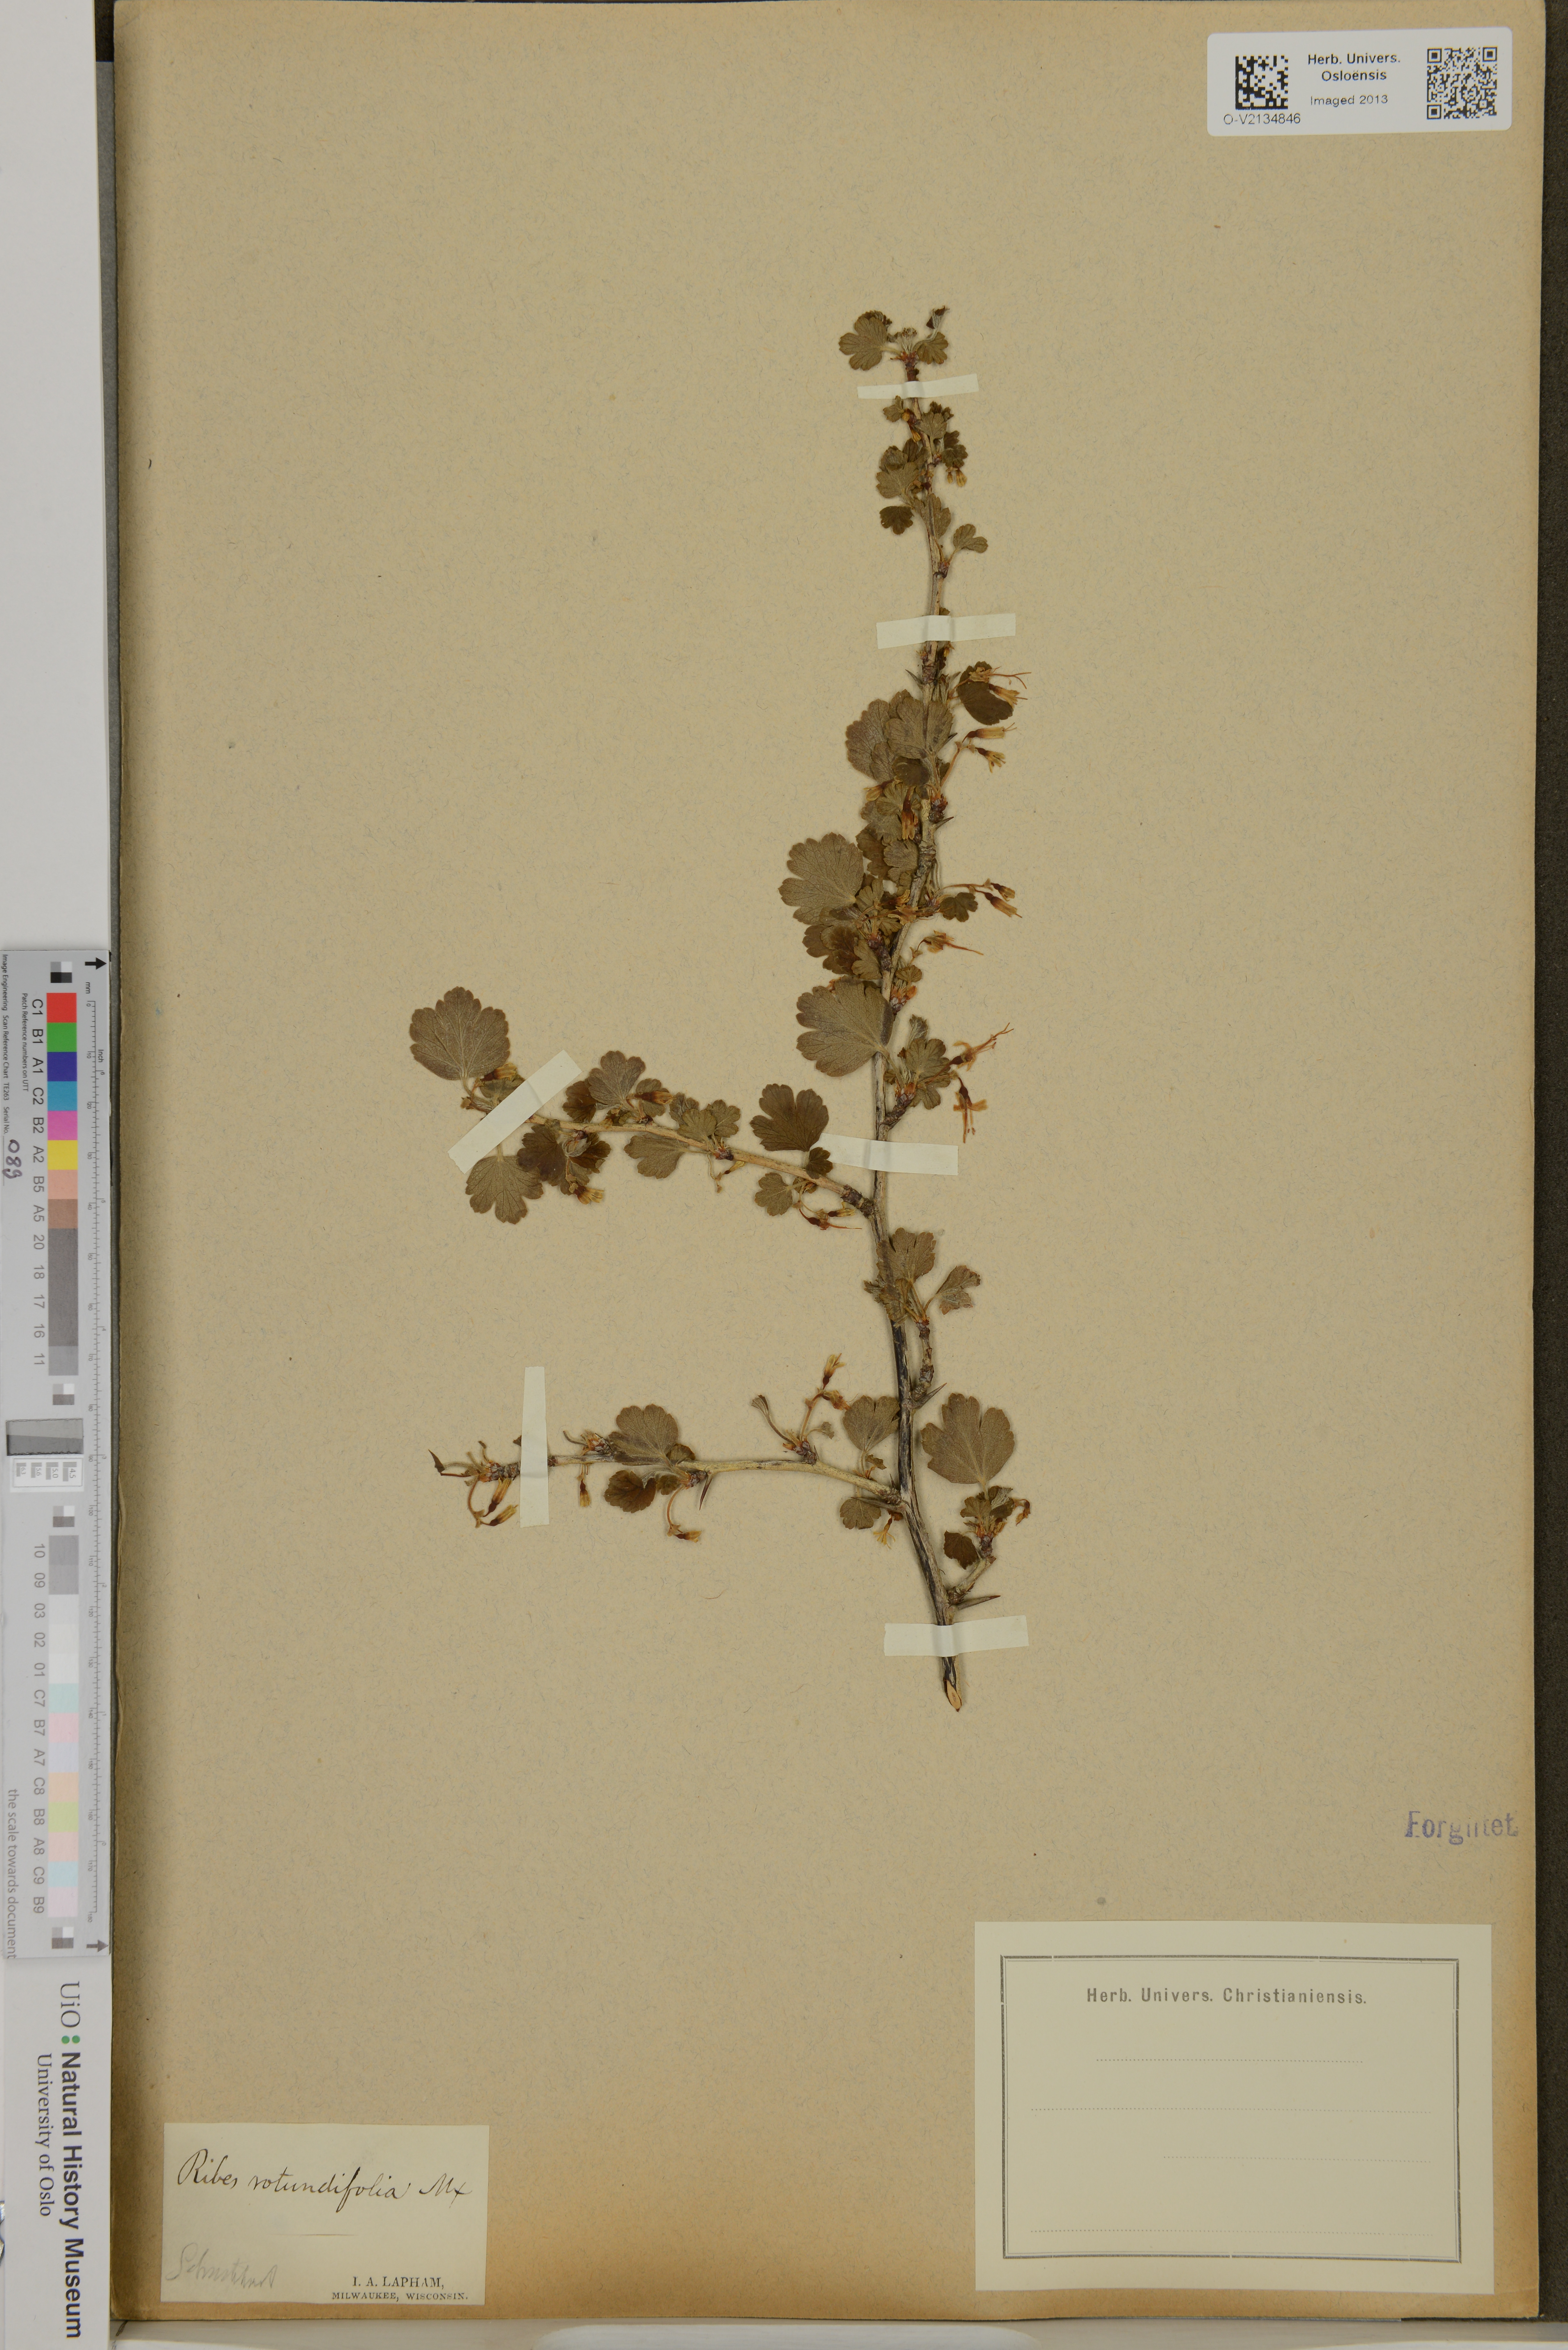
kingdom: Plantae
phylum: Tracheophyta
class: Magnoliopsida
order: Saxifragales
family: Grossulariaceae
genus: Ribes
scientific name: Ribes rotundifolium
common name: Appalachian gooseberry
